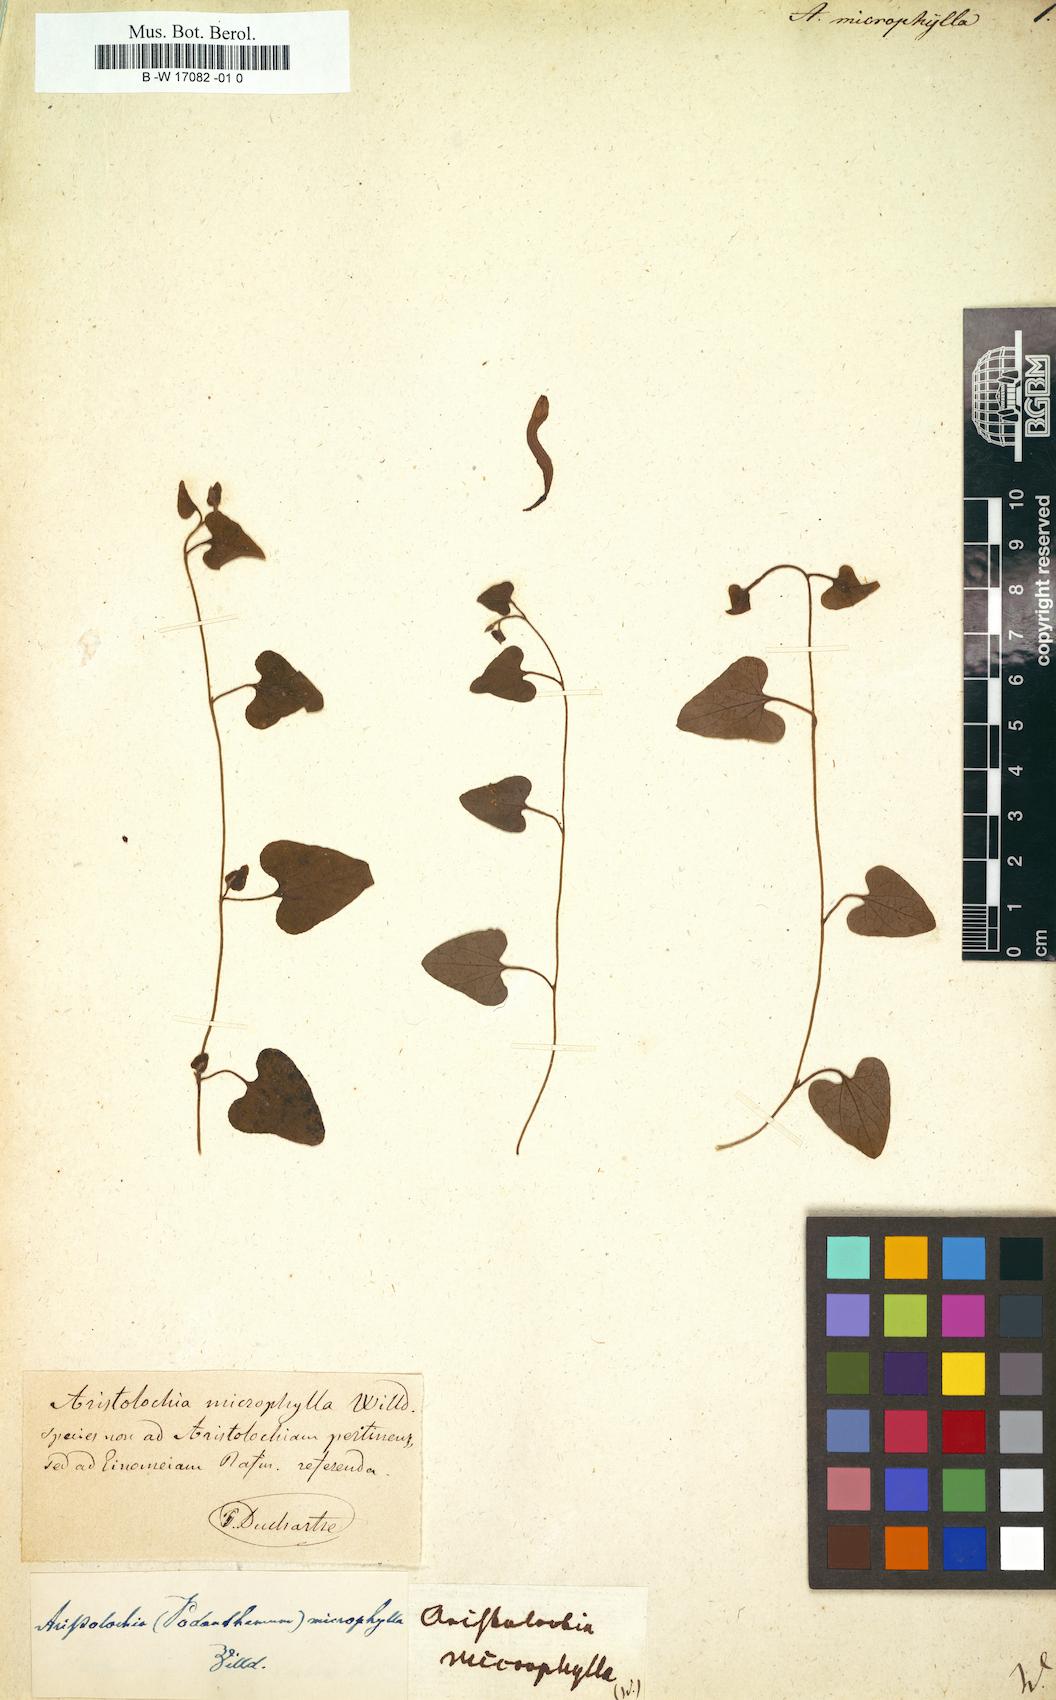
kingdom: Plantae
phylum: Tracheophyta
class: Magnoliopsida
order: Piperales
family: Aristolochiaceae
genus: Aristolochia
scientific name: Aristolochia microphylla
